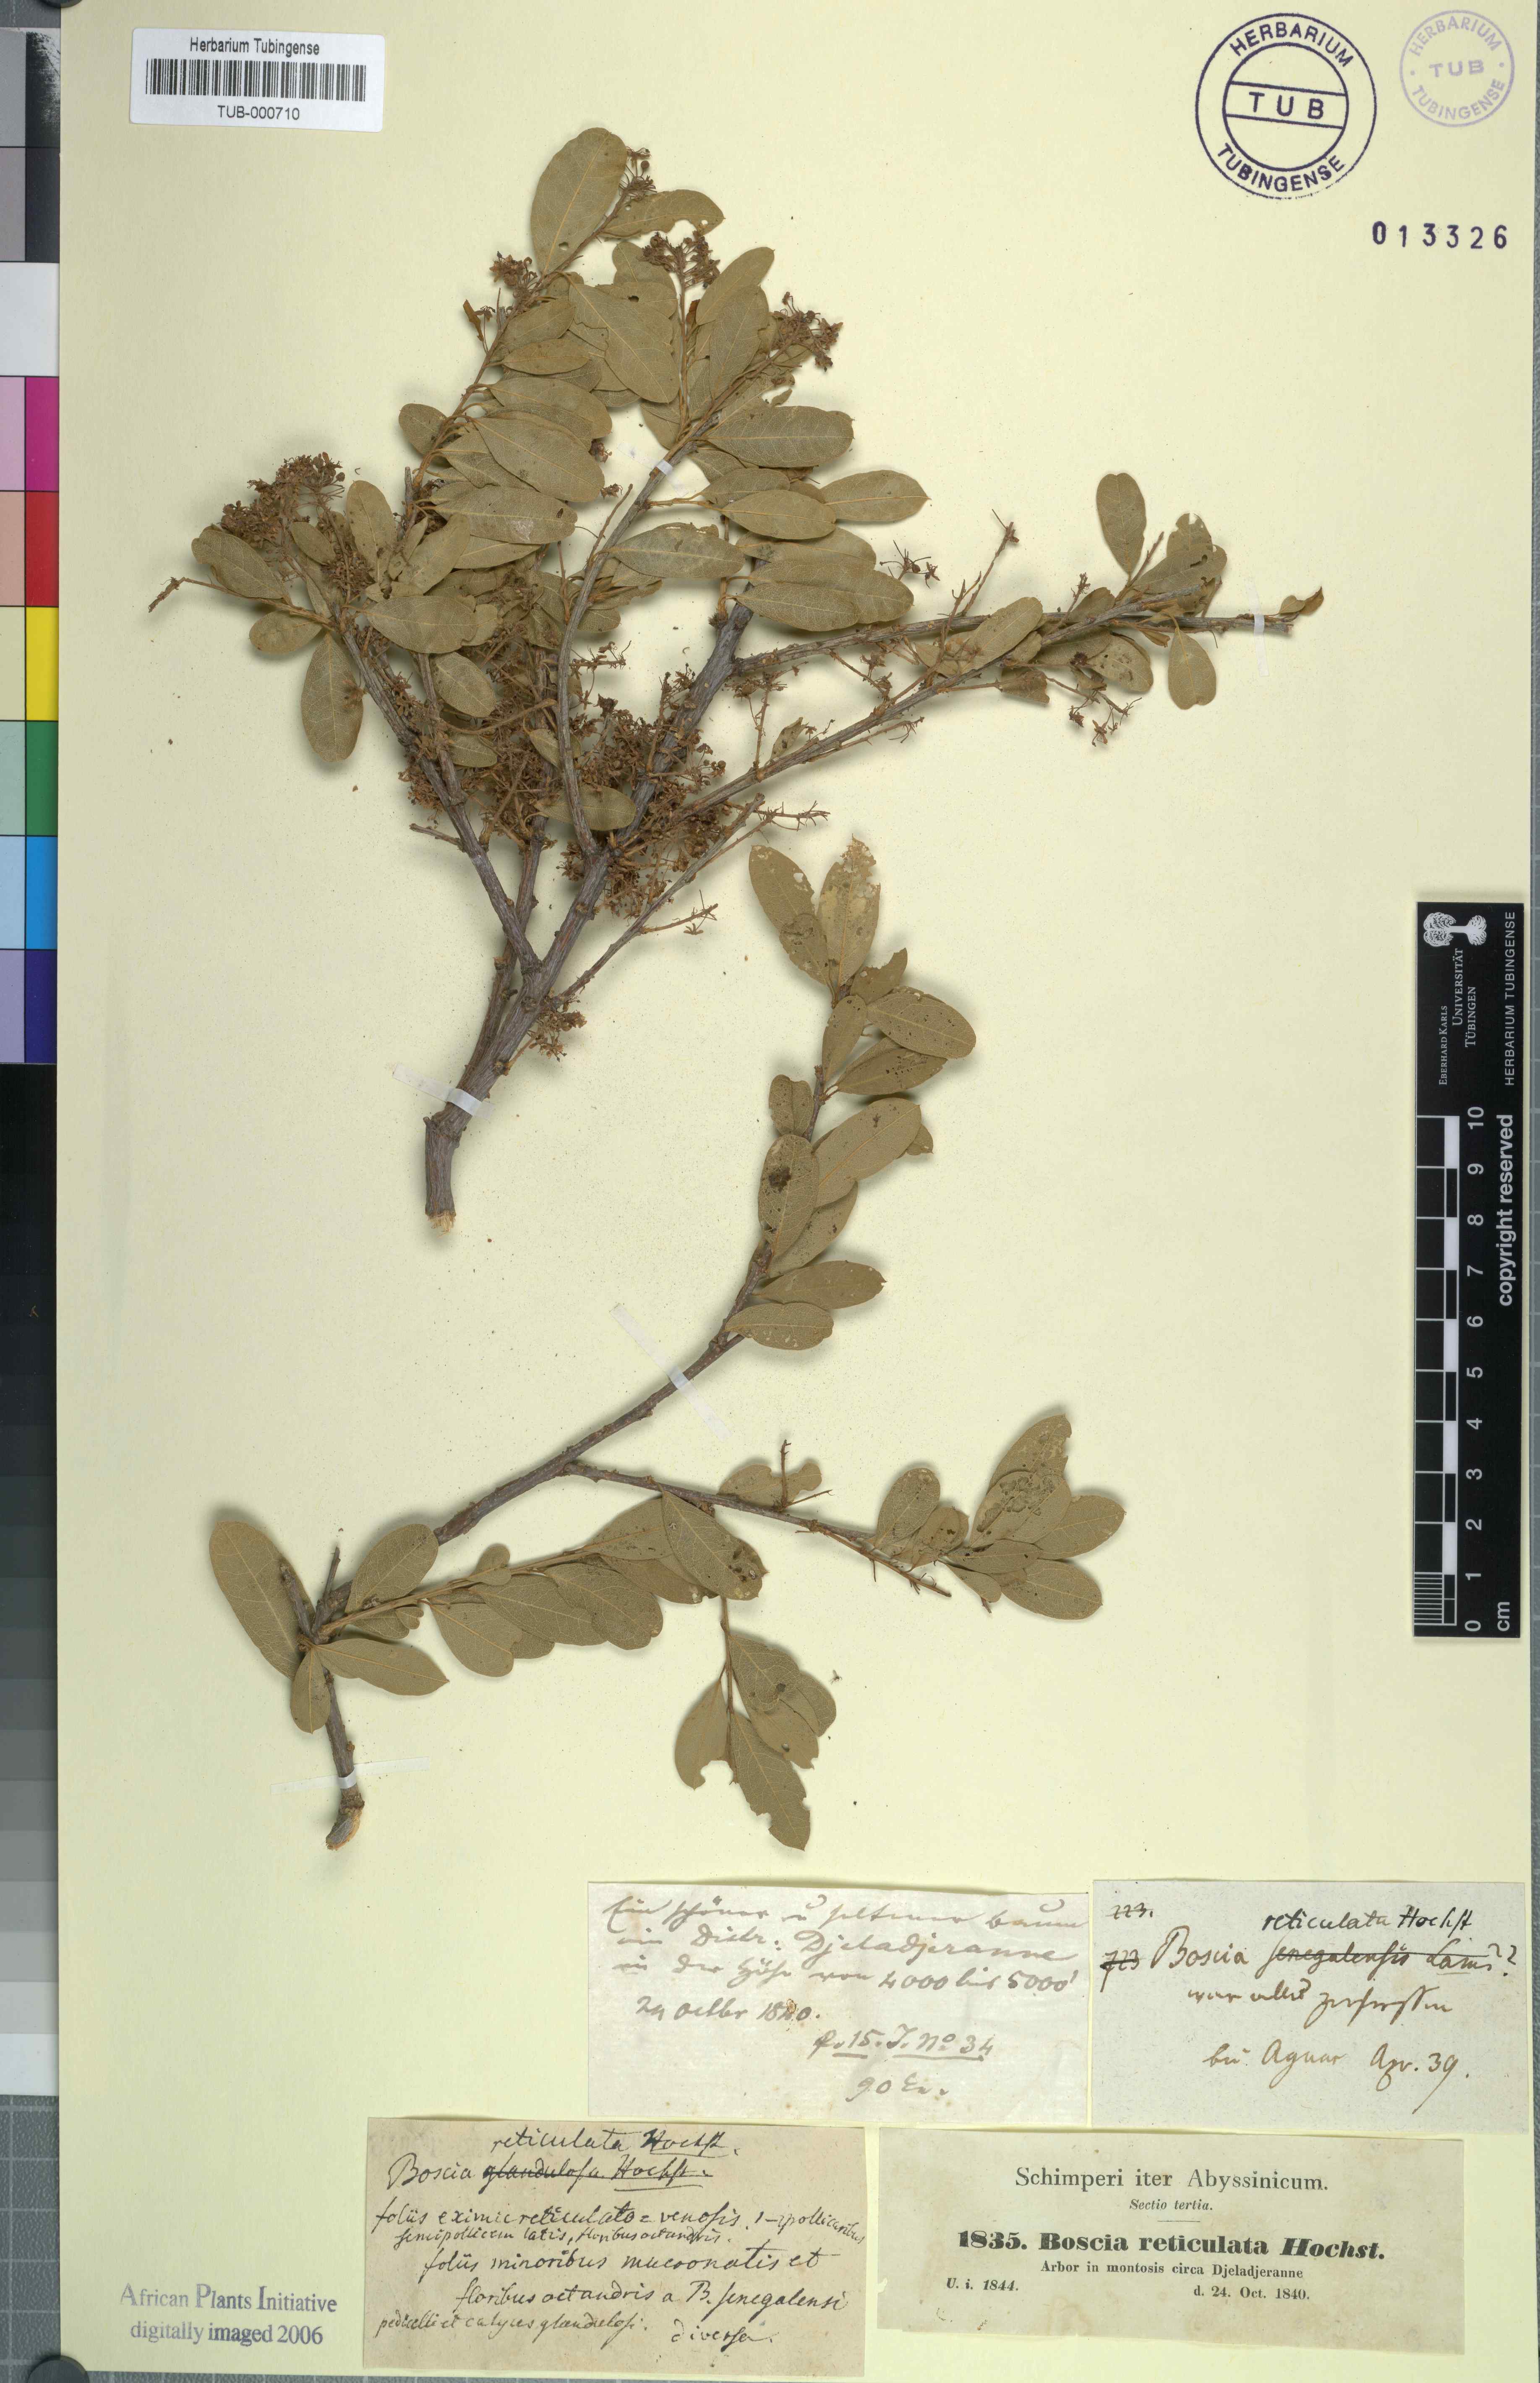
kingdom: Plantae
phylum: Tracheophyta
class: Magnoliopsida
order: Brassicales
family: Capparaceae
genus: Boscia
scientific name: Boscia angustifolia
